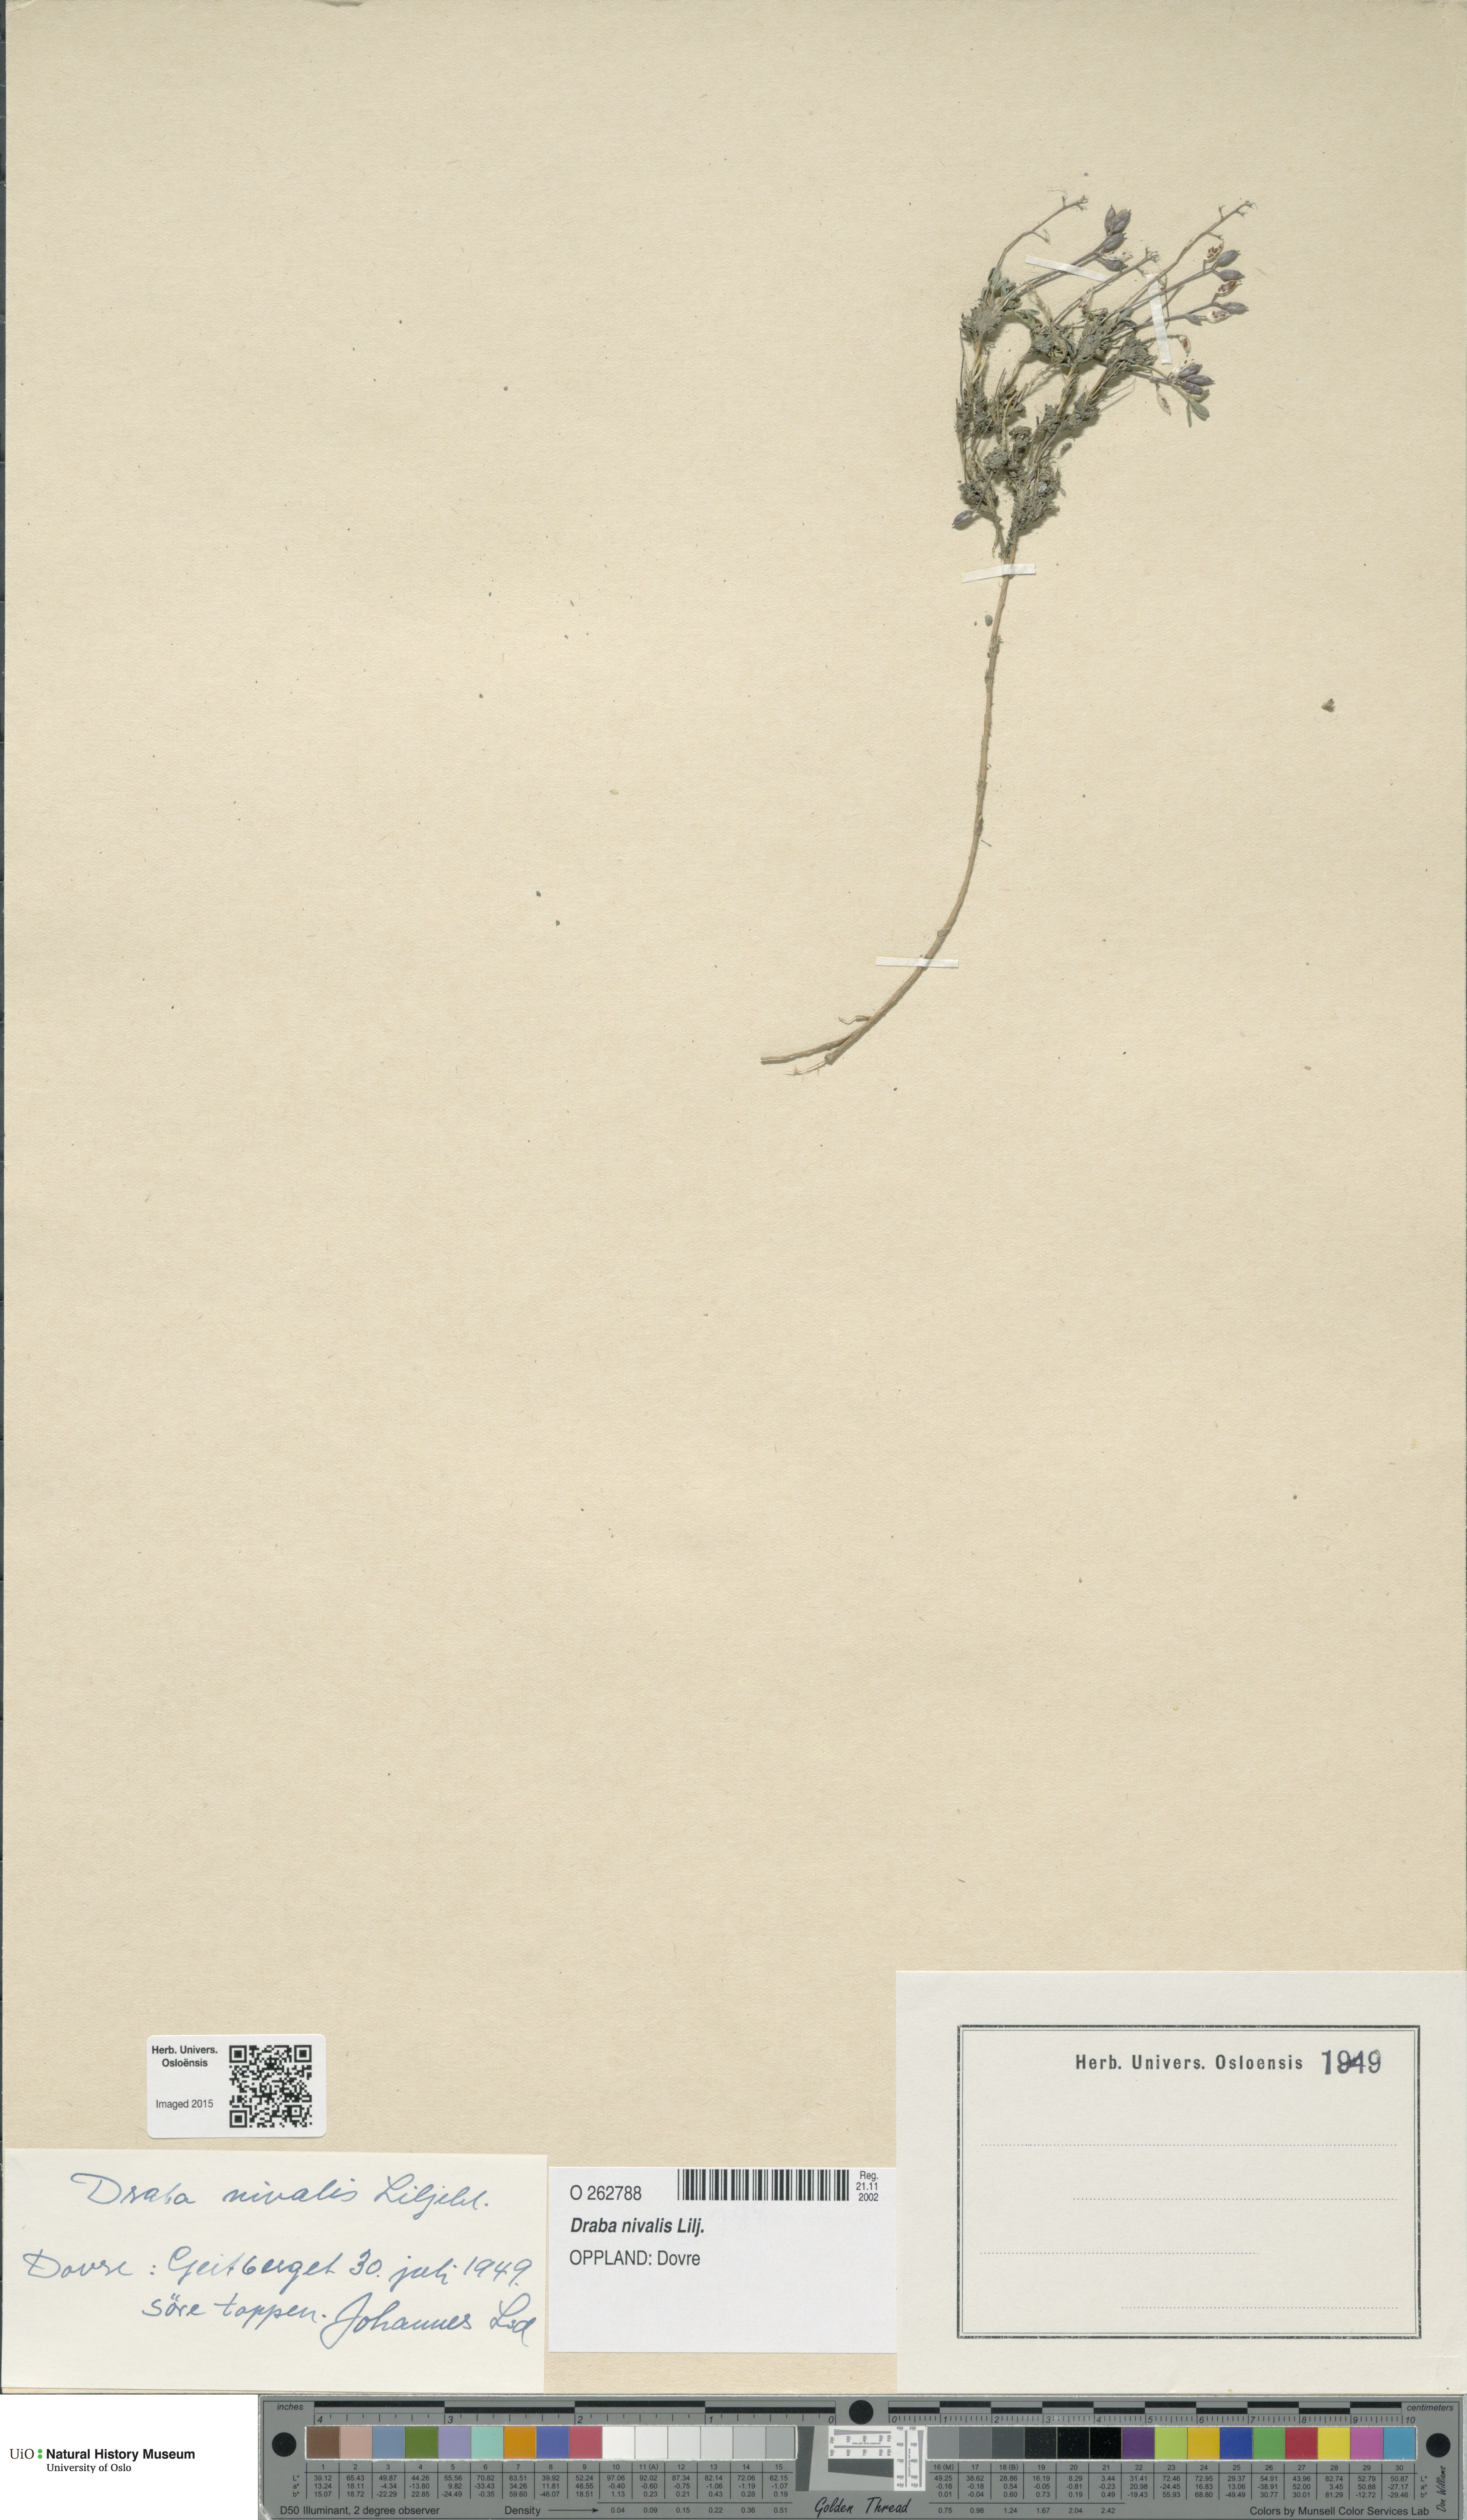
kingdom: Plantae
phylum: Tracheophyta
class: Magnoliopsida
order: Brassicales
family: Brassicaceae
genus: Draba
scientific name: Draba nivalis
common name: Snow draba
